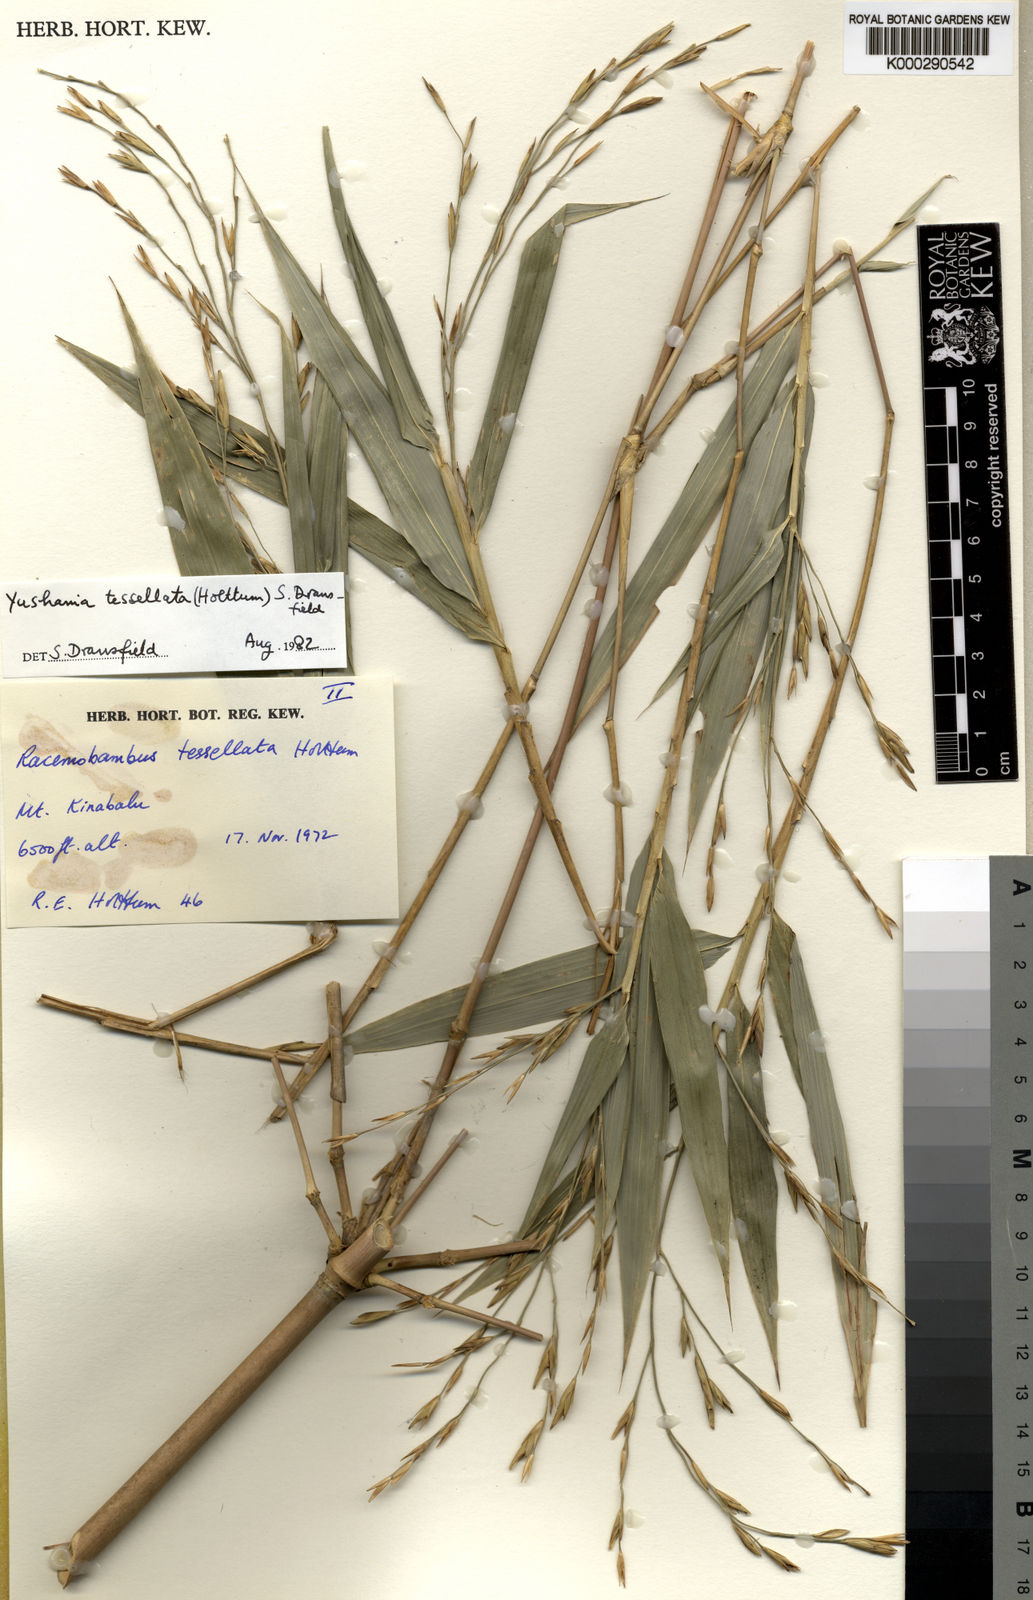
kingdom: Plantae
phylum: Tracheophyta
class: Liliopsida
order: Poales
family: Poaceae
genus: Yushania
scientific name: Yushania tessellata
